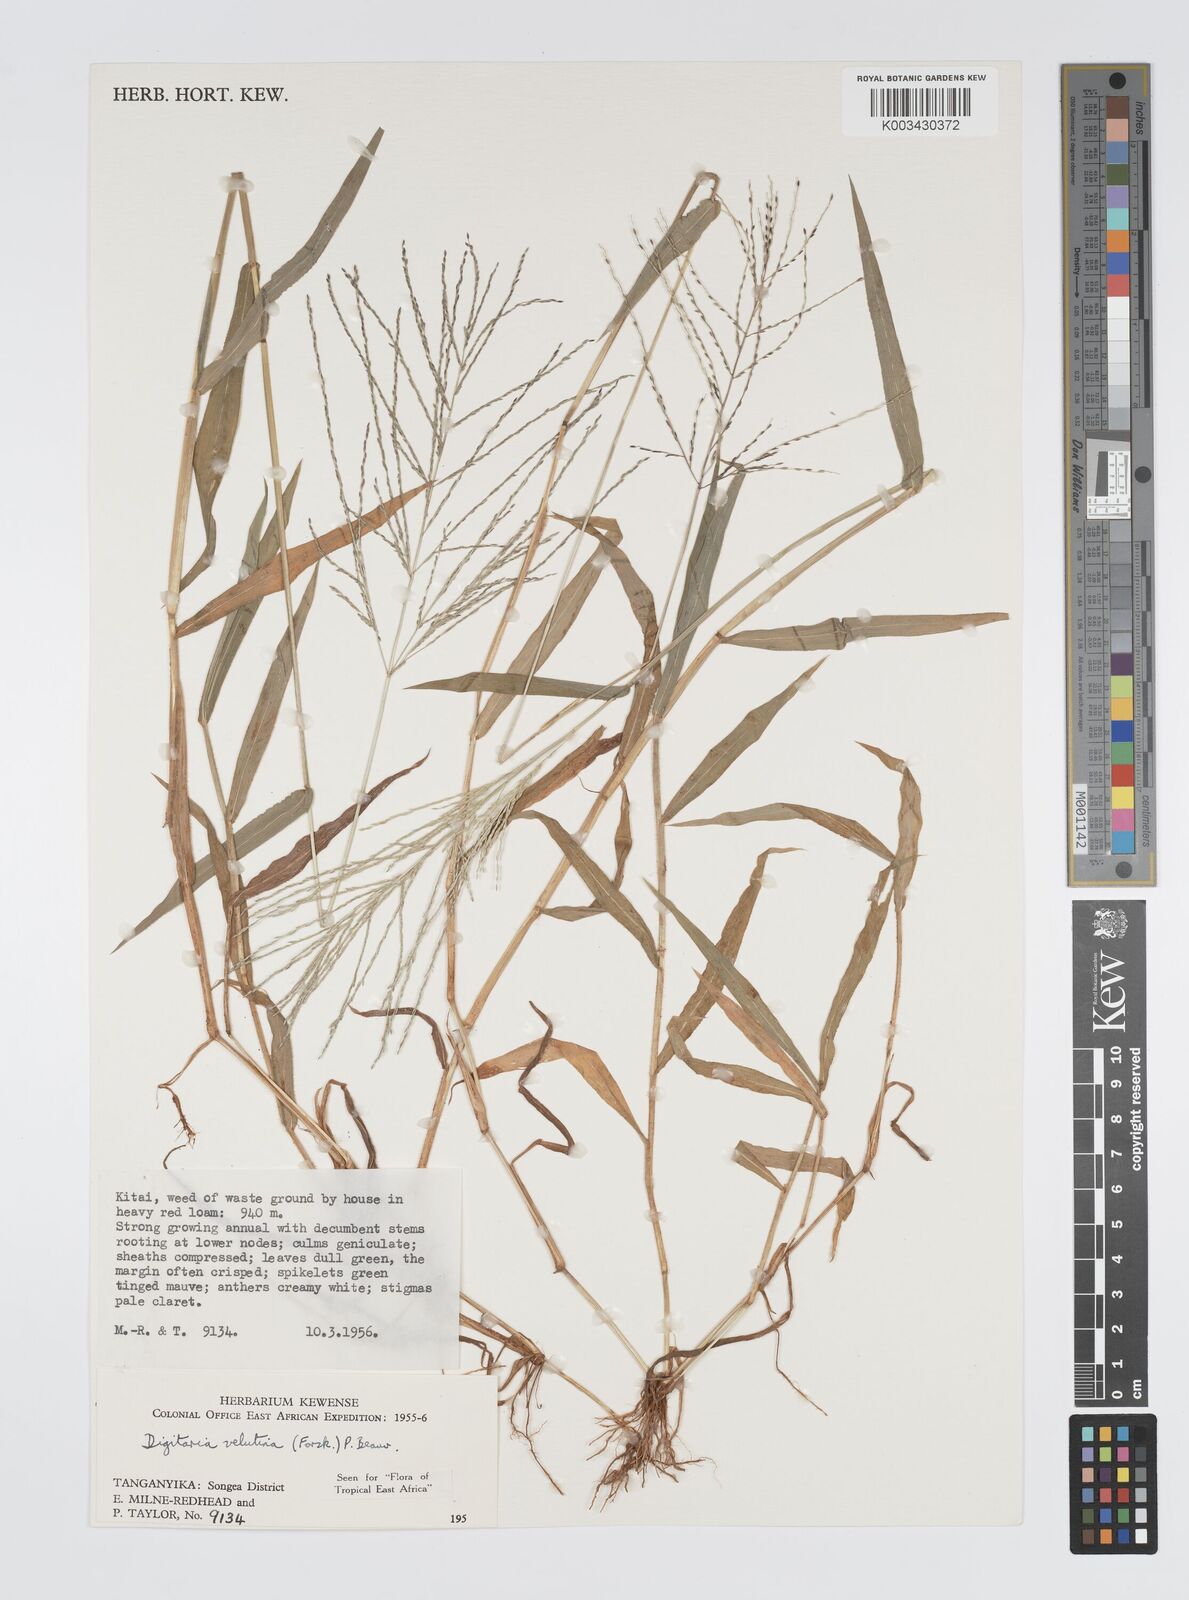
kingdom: Plantae
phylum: Tracheophyta
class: Liliopsida
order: Poales
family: Poaceae
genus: Digitaria
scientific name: Digitaria velutina
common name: Long-plume finger grass
